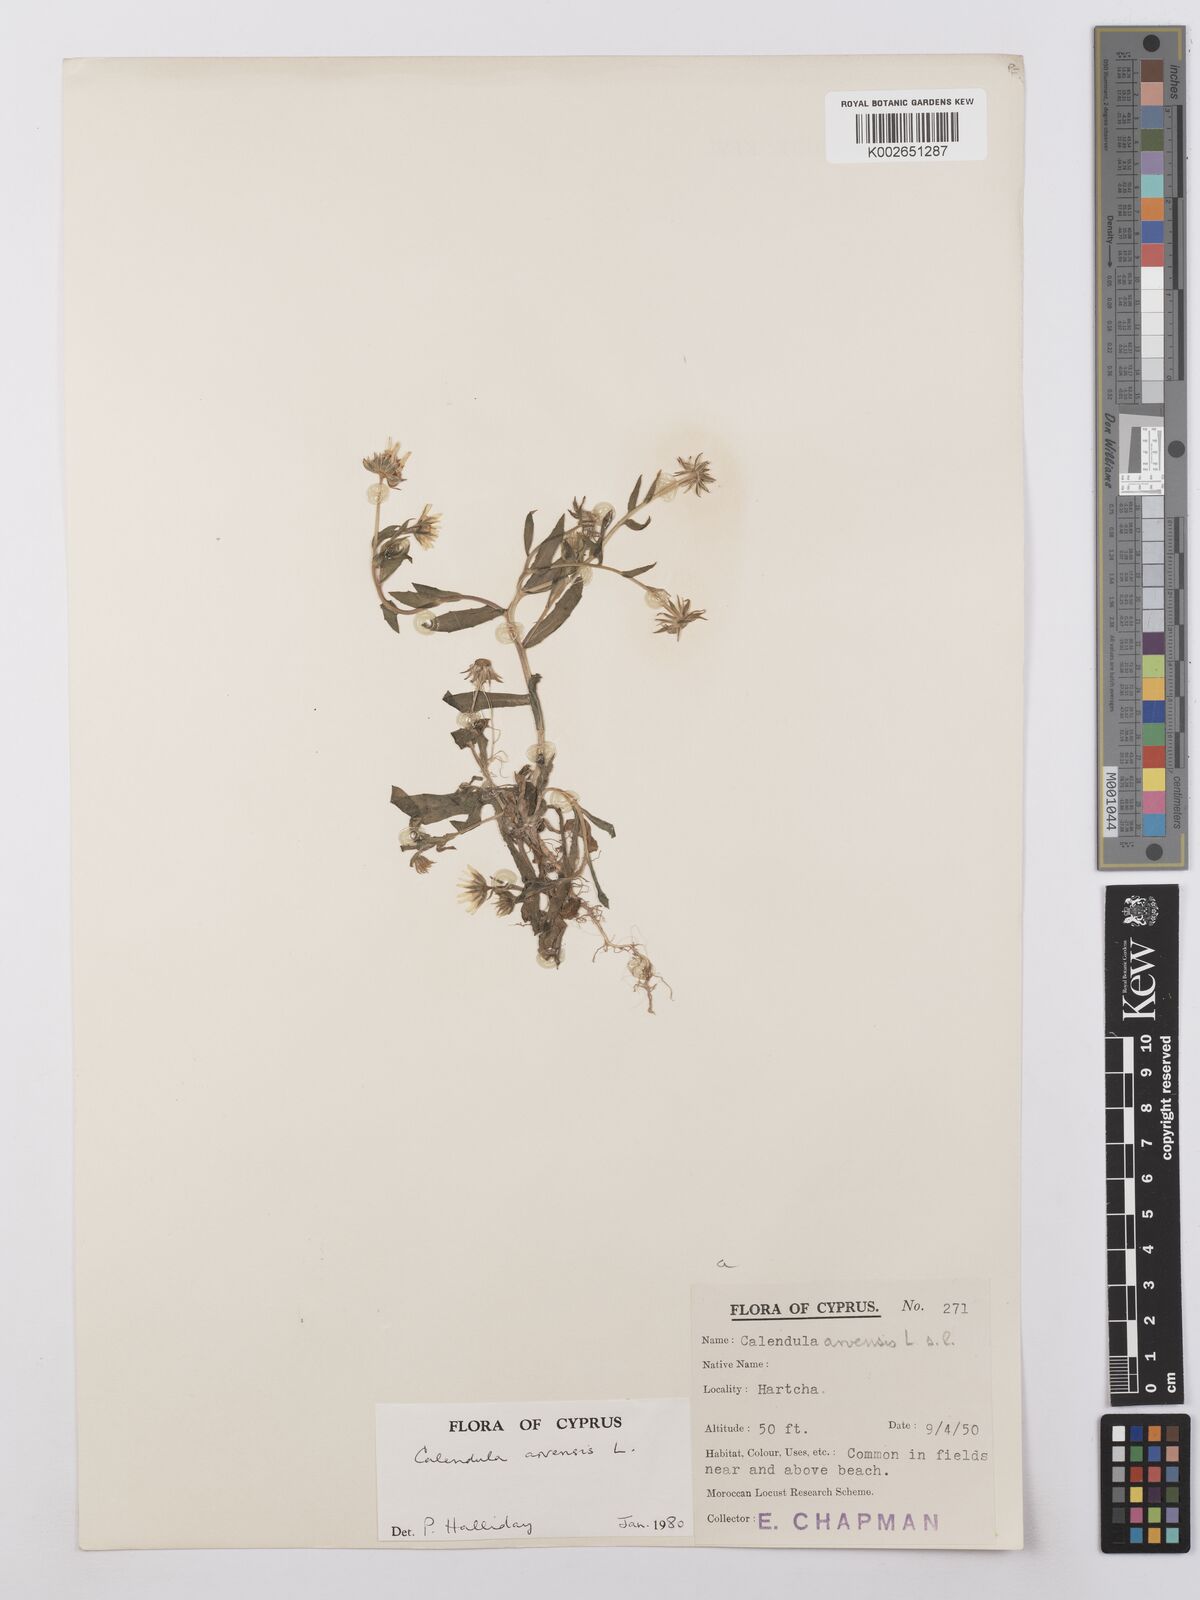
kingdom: Plantae
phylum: Tracheophyta
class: Magnoliopsida
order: Asterales
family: Asteraceae
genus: Calendula
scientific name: Calendula arvensis
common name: Field marigold
